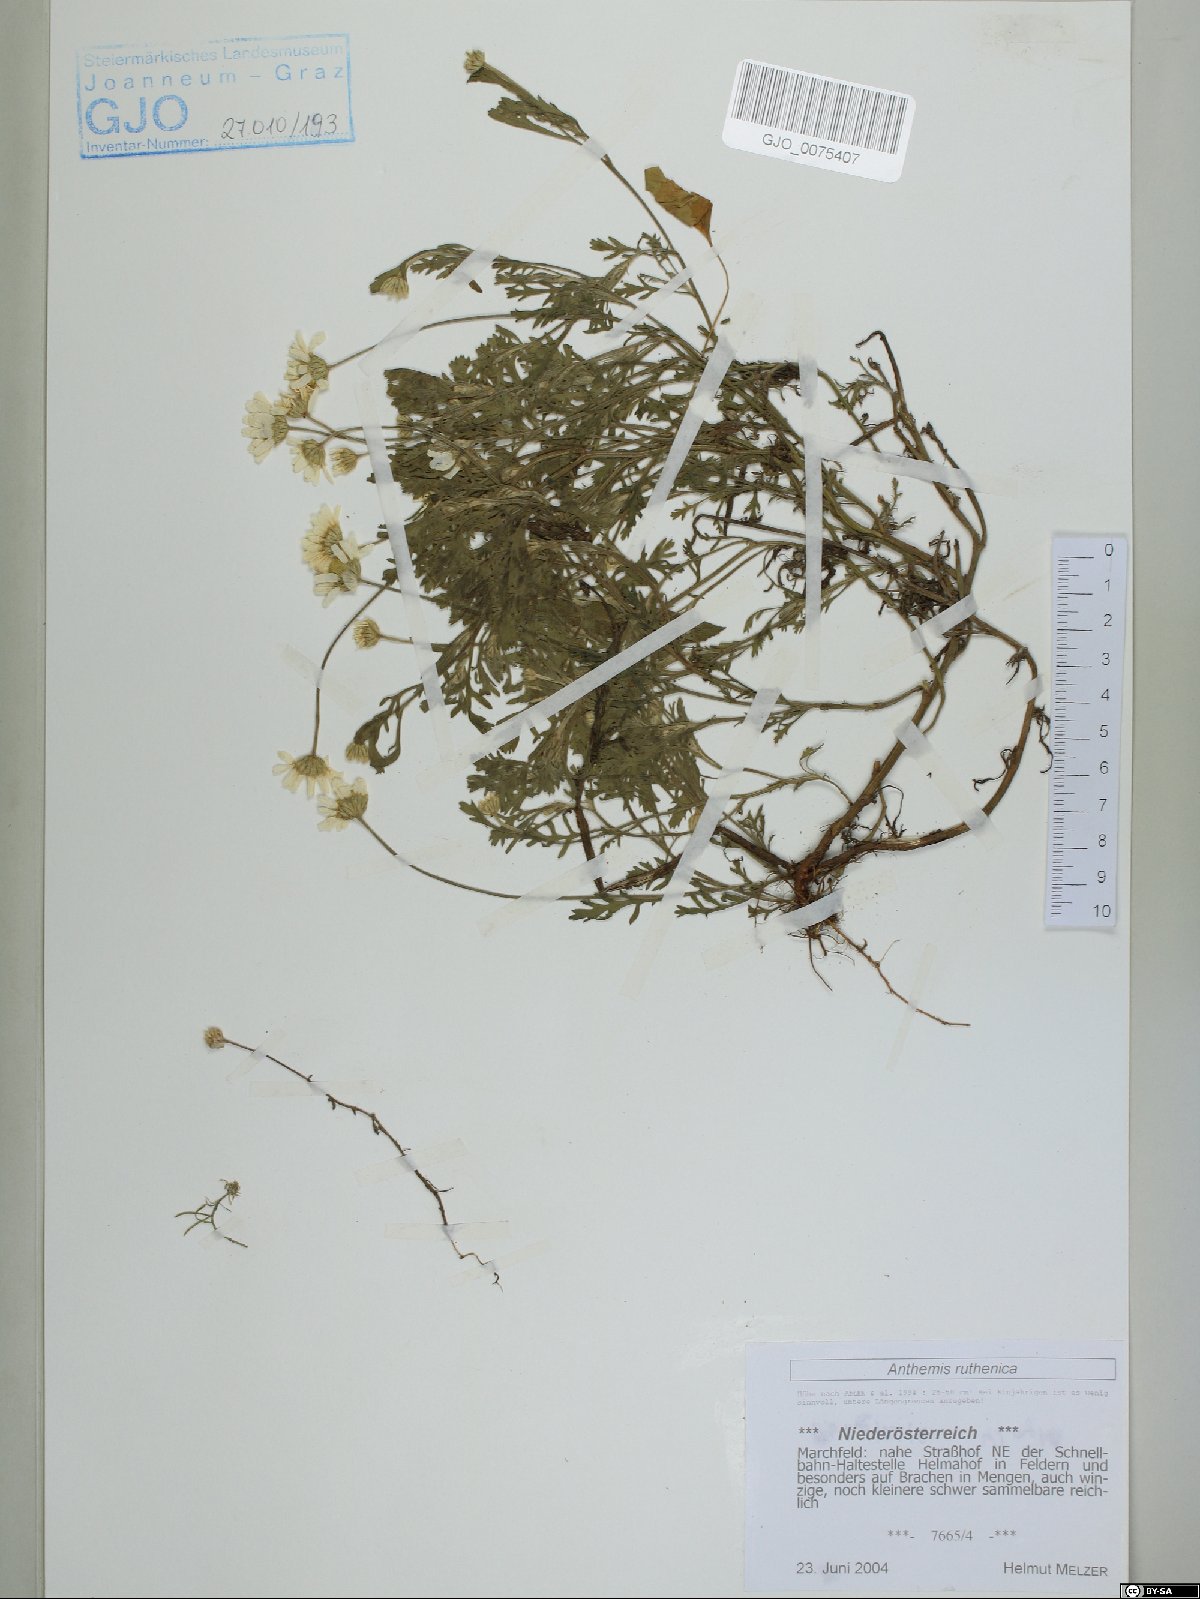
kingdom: Plantae
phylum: Tracheophyta
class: Magnoliopsida
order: Asterales
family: Asteraceae
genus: Anthemis
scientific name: Anthemis ruthenica
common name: Eastern chamomile
